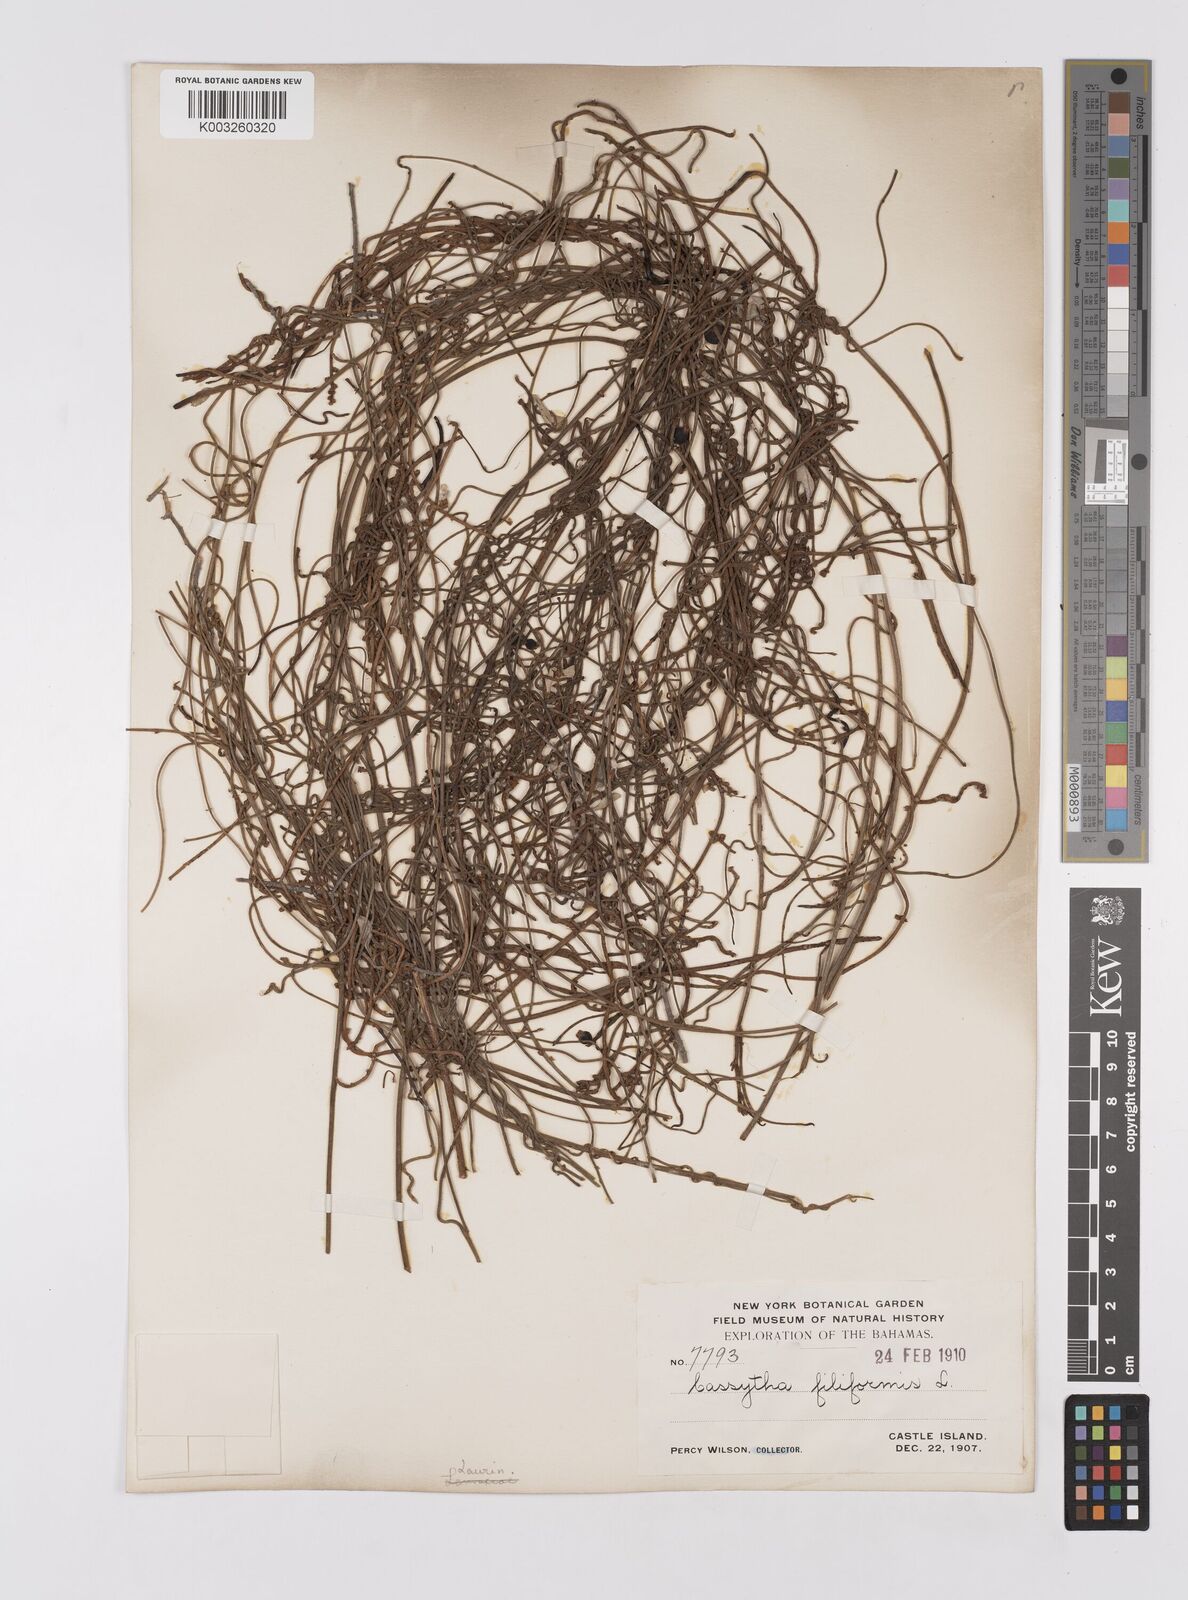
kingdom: Plantae
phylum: Tracheophyta
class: Magnoliopsida
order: Laurales
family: Lauraceae
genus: Cassytha
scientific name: Cassytha filiformis
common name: Dodder-laurel
